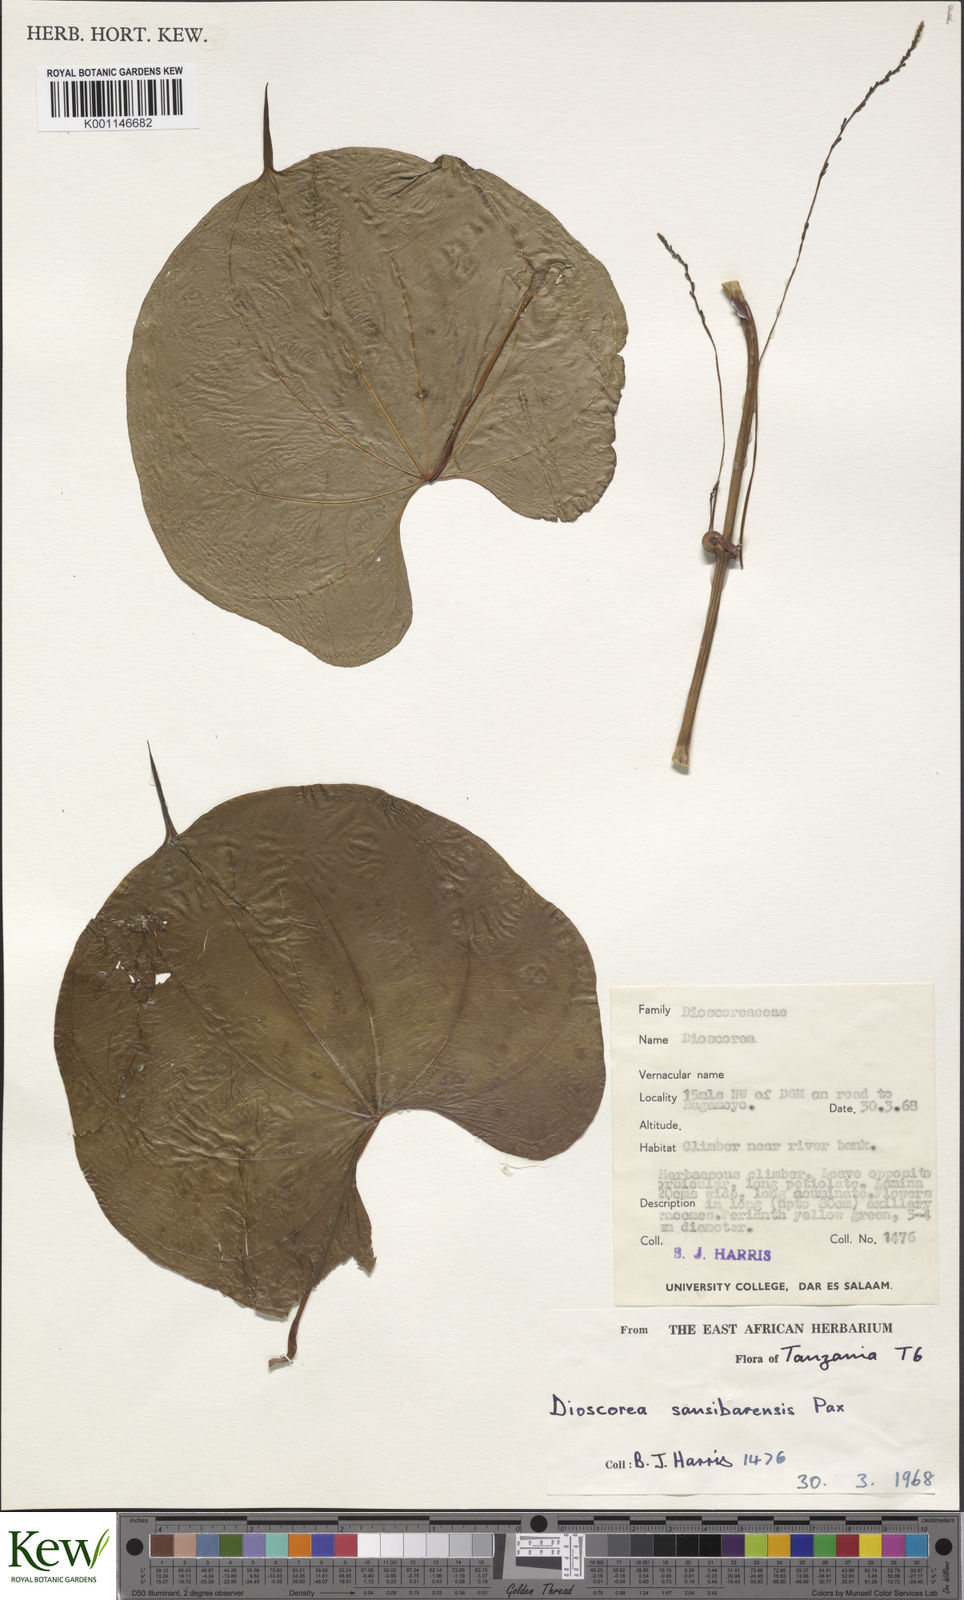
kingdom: Plantae
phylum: Tracheophyta
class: Liliopsida
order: Dioscoreales
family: Dioscoreaceae
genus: Dioscorea
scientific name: Dioscorea sansibarensis
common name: Zanzibar yam
